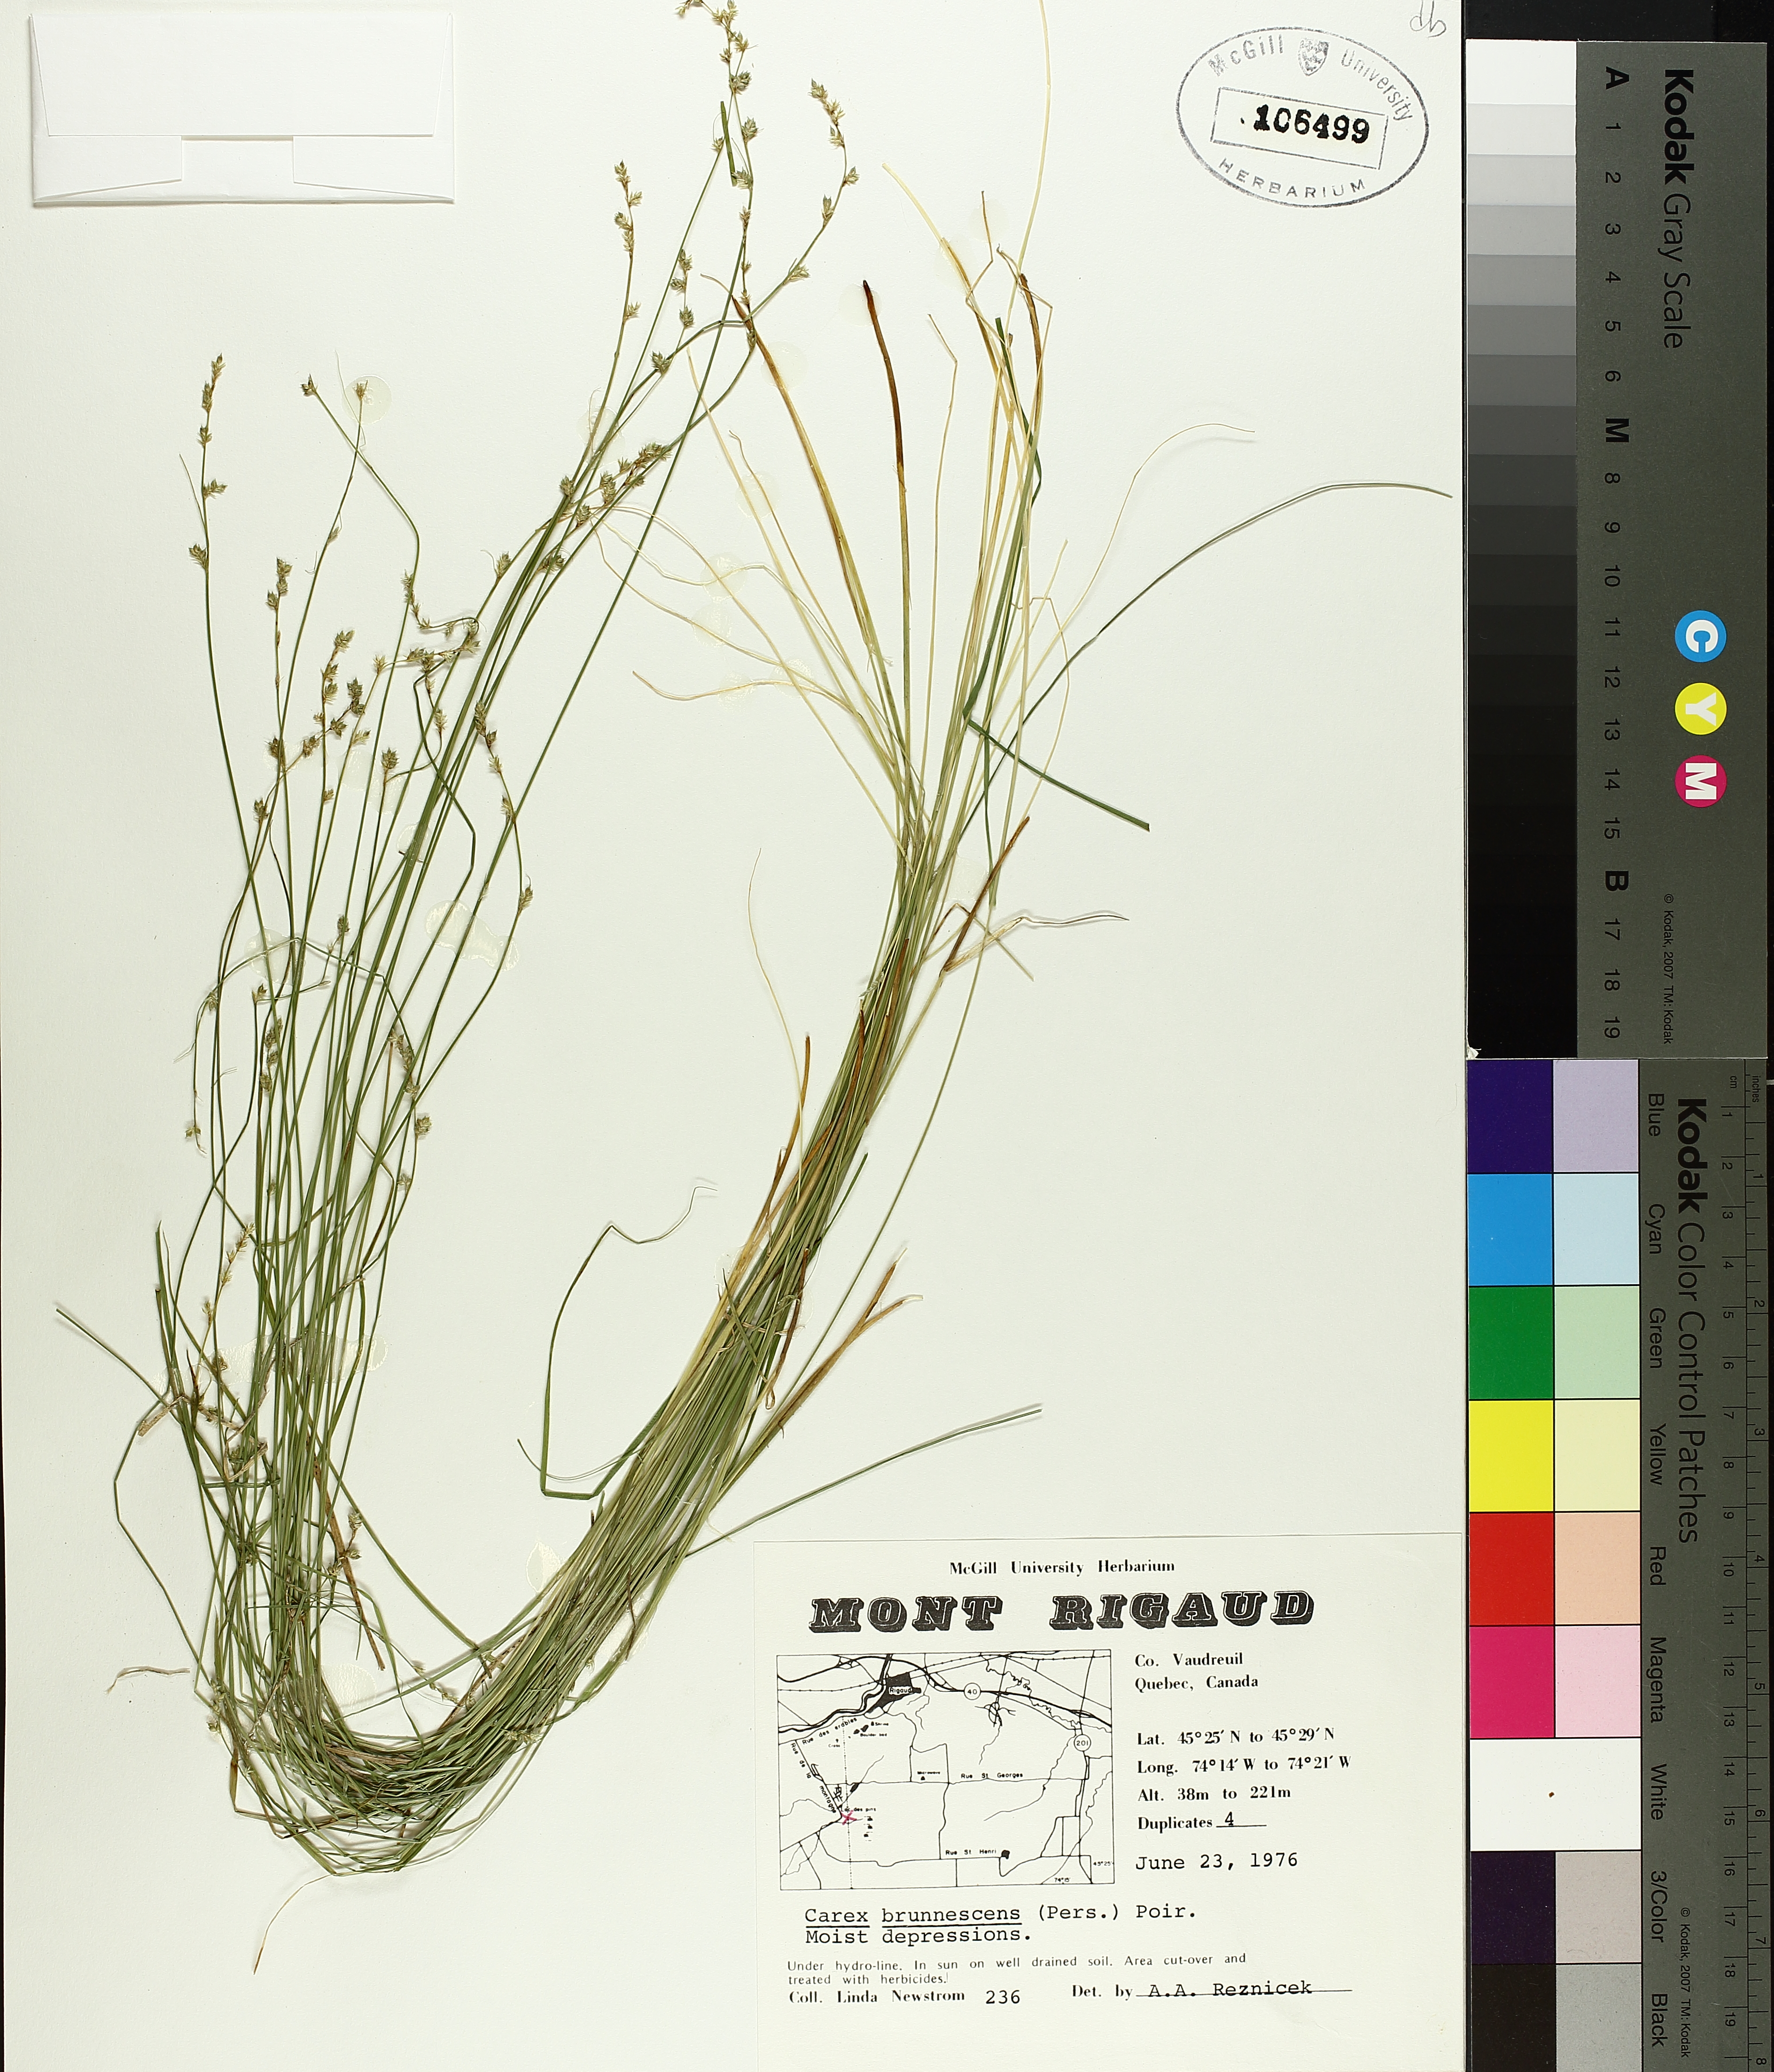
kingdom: Plantae
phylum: Tracheophyta
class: Liliopsida
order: Poales
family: Cyperaceae
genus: Carex
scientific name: Carex brunnescens
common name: Brown sedge
